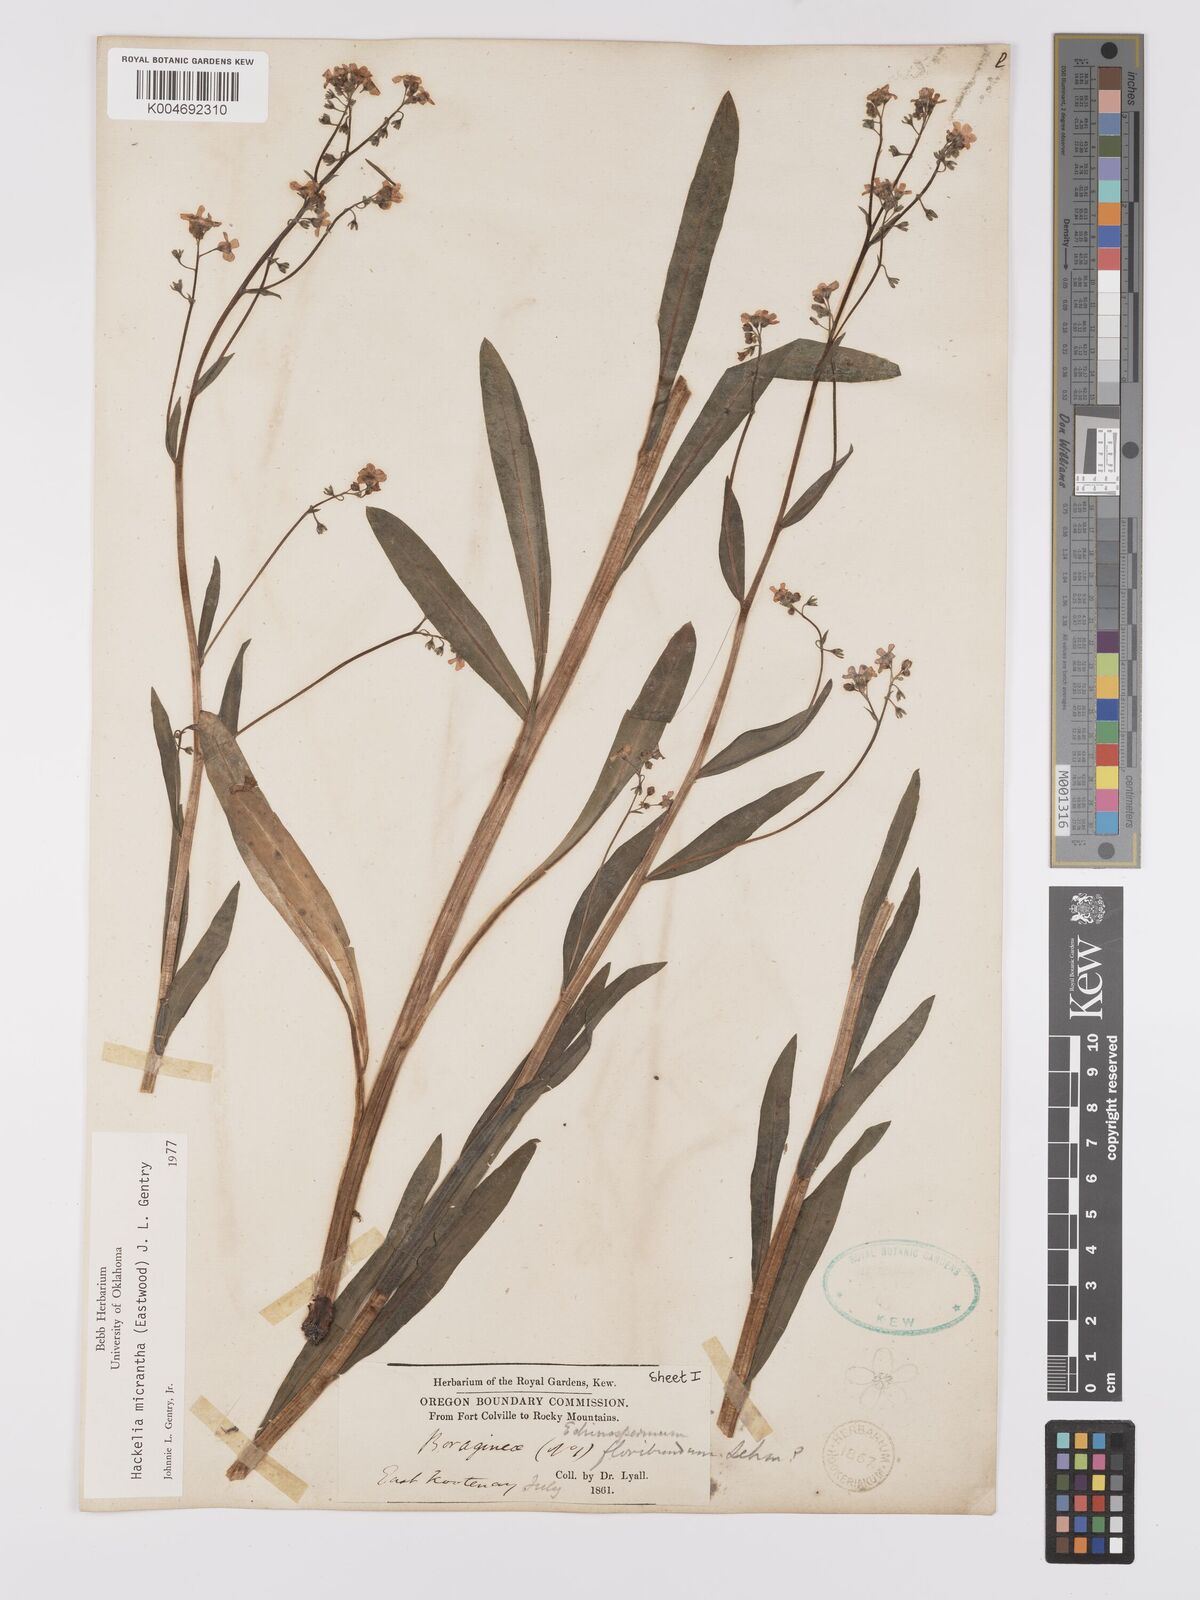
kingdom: Plantae
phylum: Tracheophyta
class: Magnoliopsida
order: Boraginales
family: Boraginaceae
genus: Hackelia
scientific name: Hackelia diffusa
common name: Spreading hackelia
